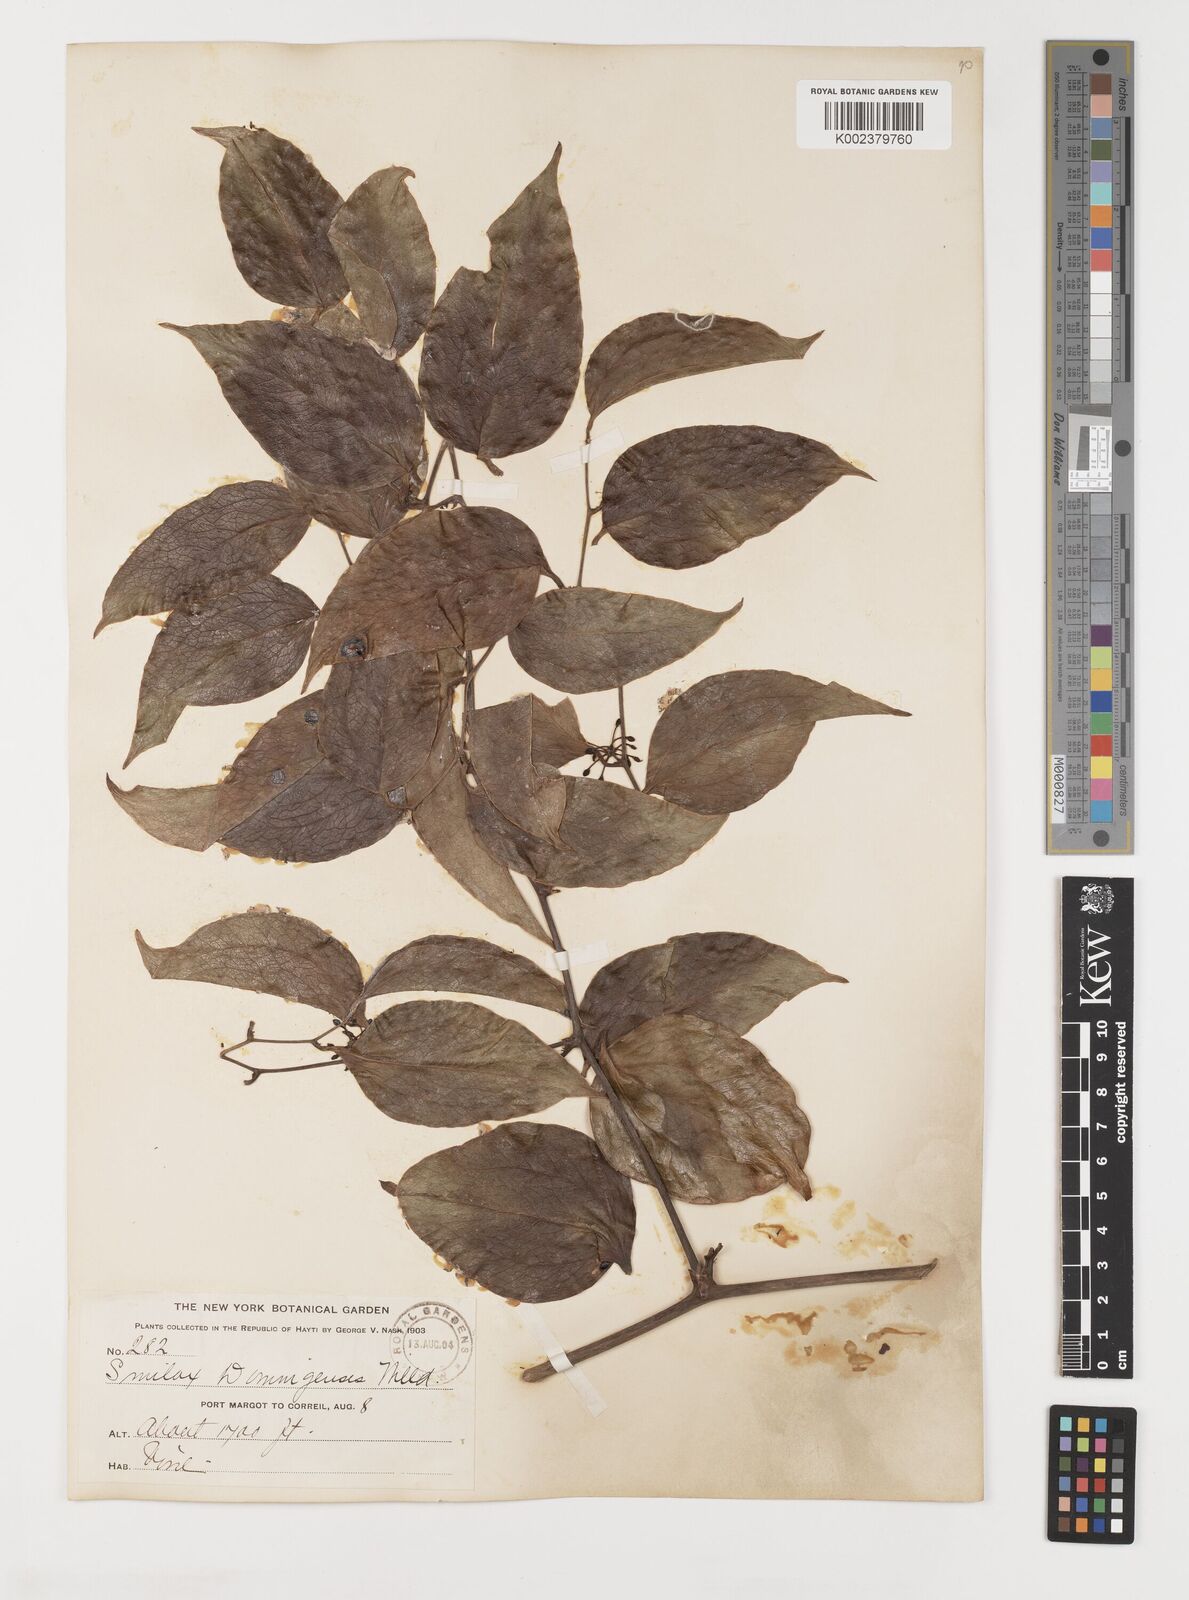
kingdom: Plantae
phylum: Tracheophyta
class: Liliopsida
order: Liliales
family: Smilacaceae
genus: Smilax
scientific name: Smilax domingensis
